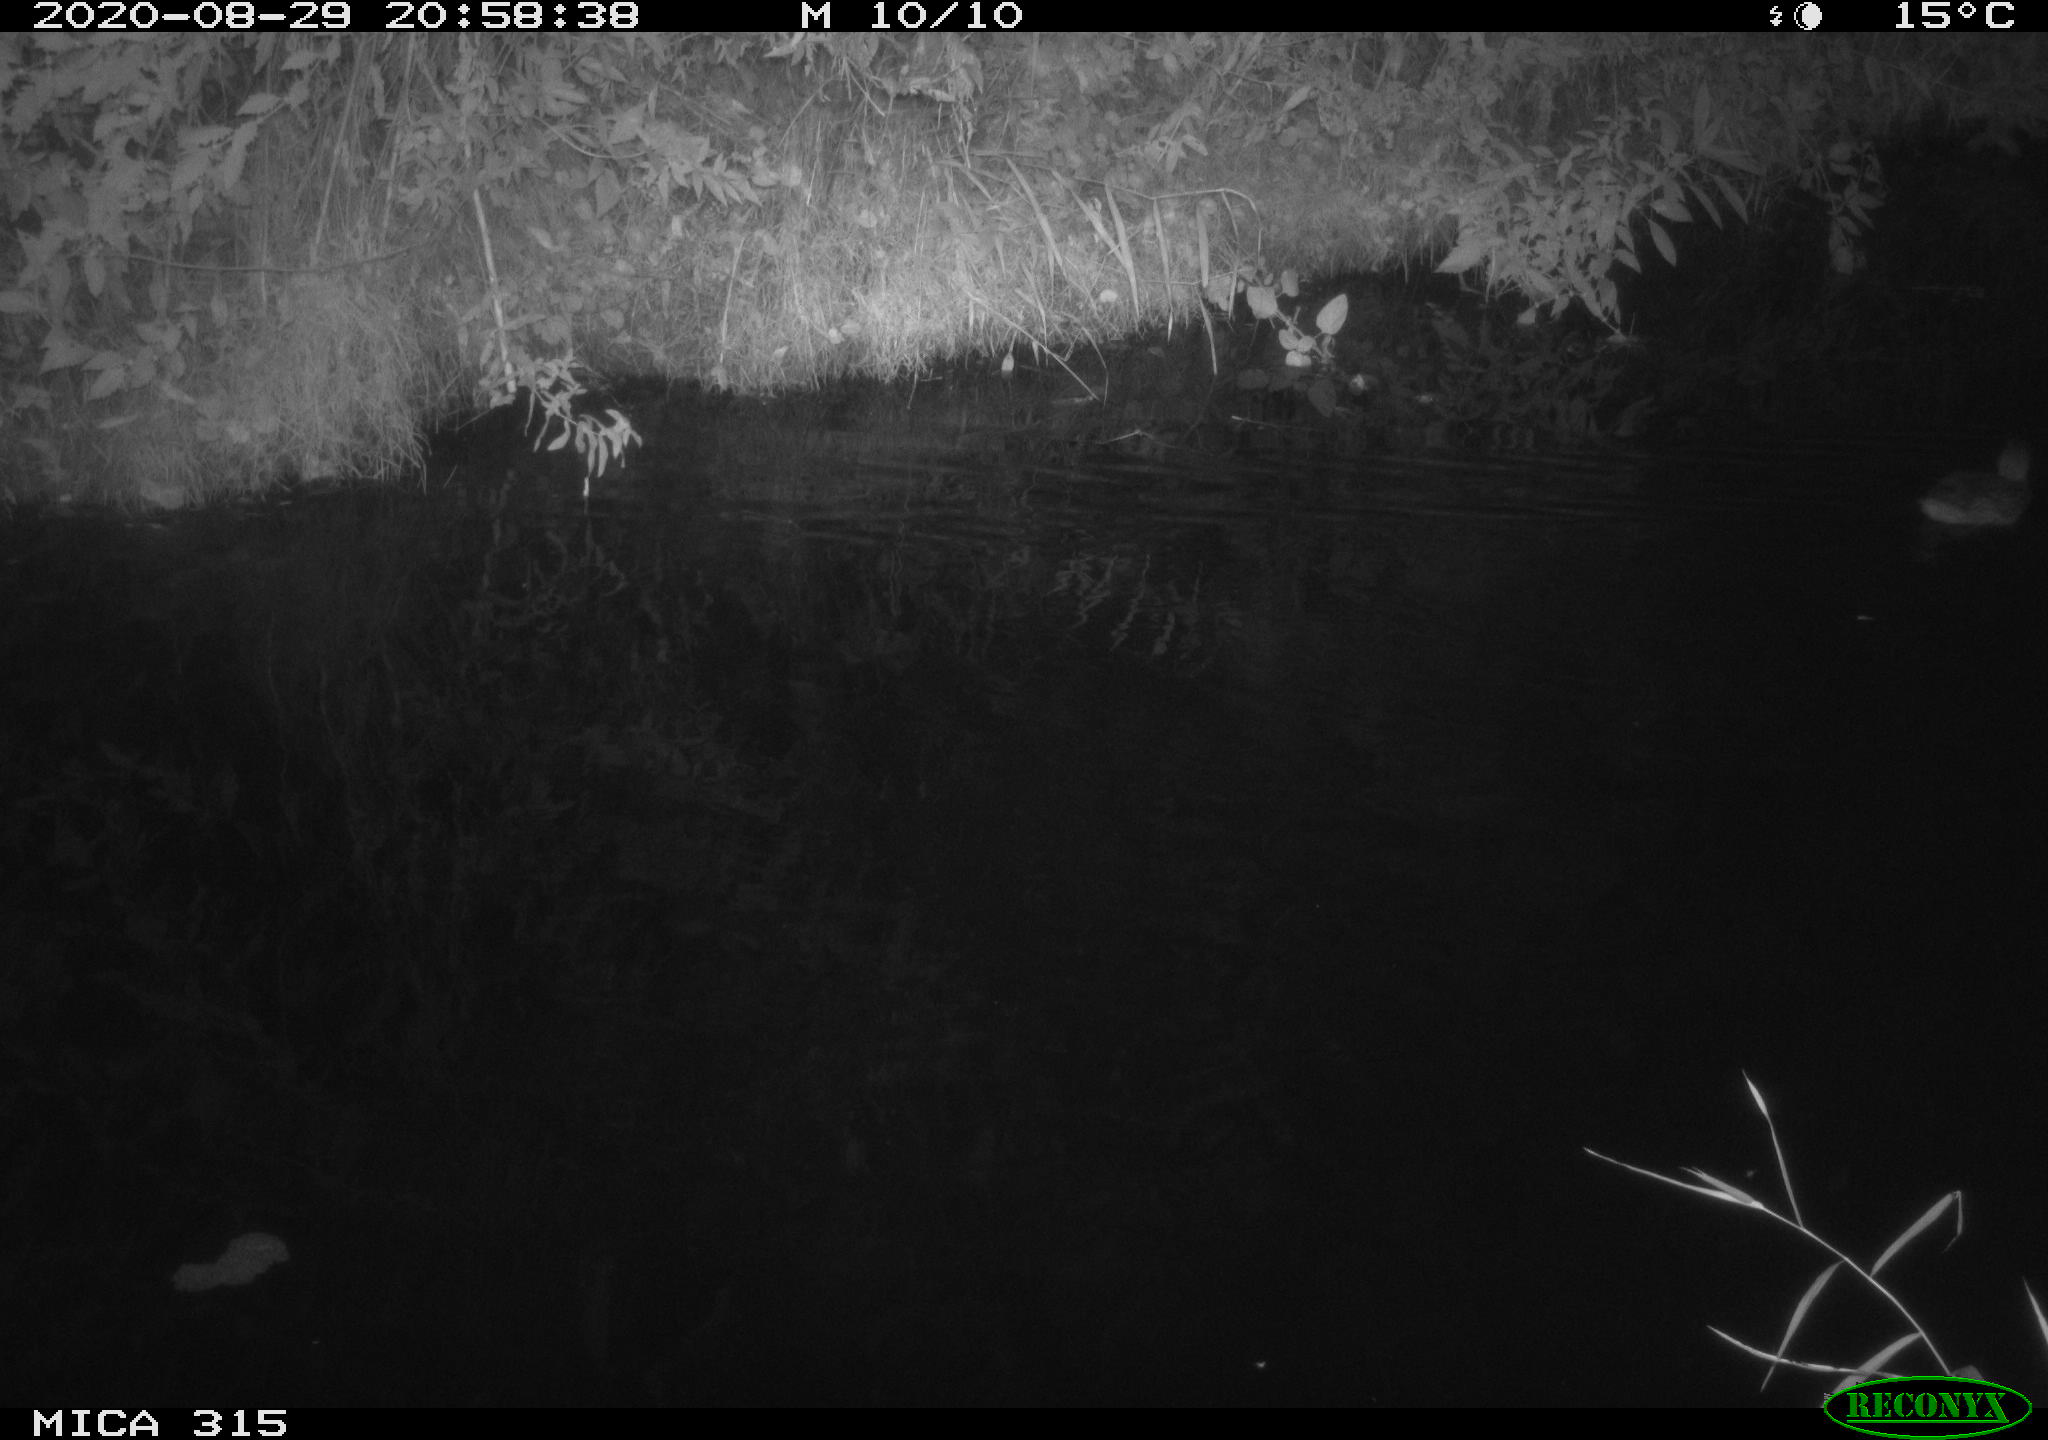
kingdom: Animalia
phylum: Chordata
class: Aves
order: Anseriformes
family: Anatidae
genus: Anas
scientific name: Anas platyrhynchos
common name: Mallard
